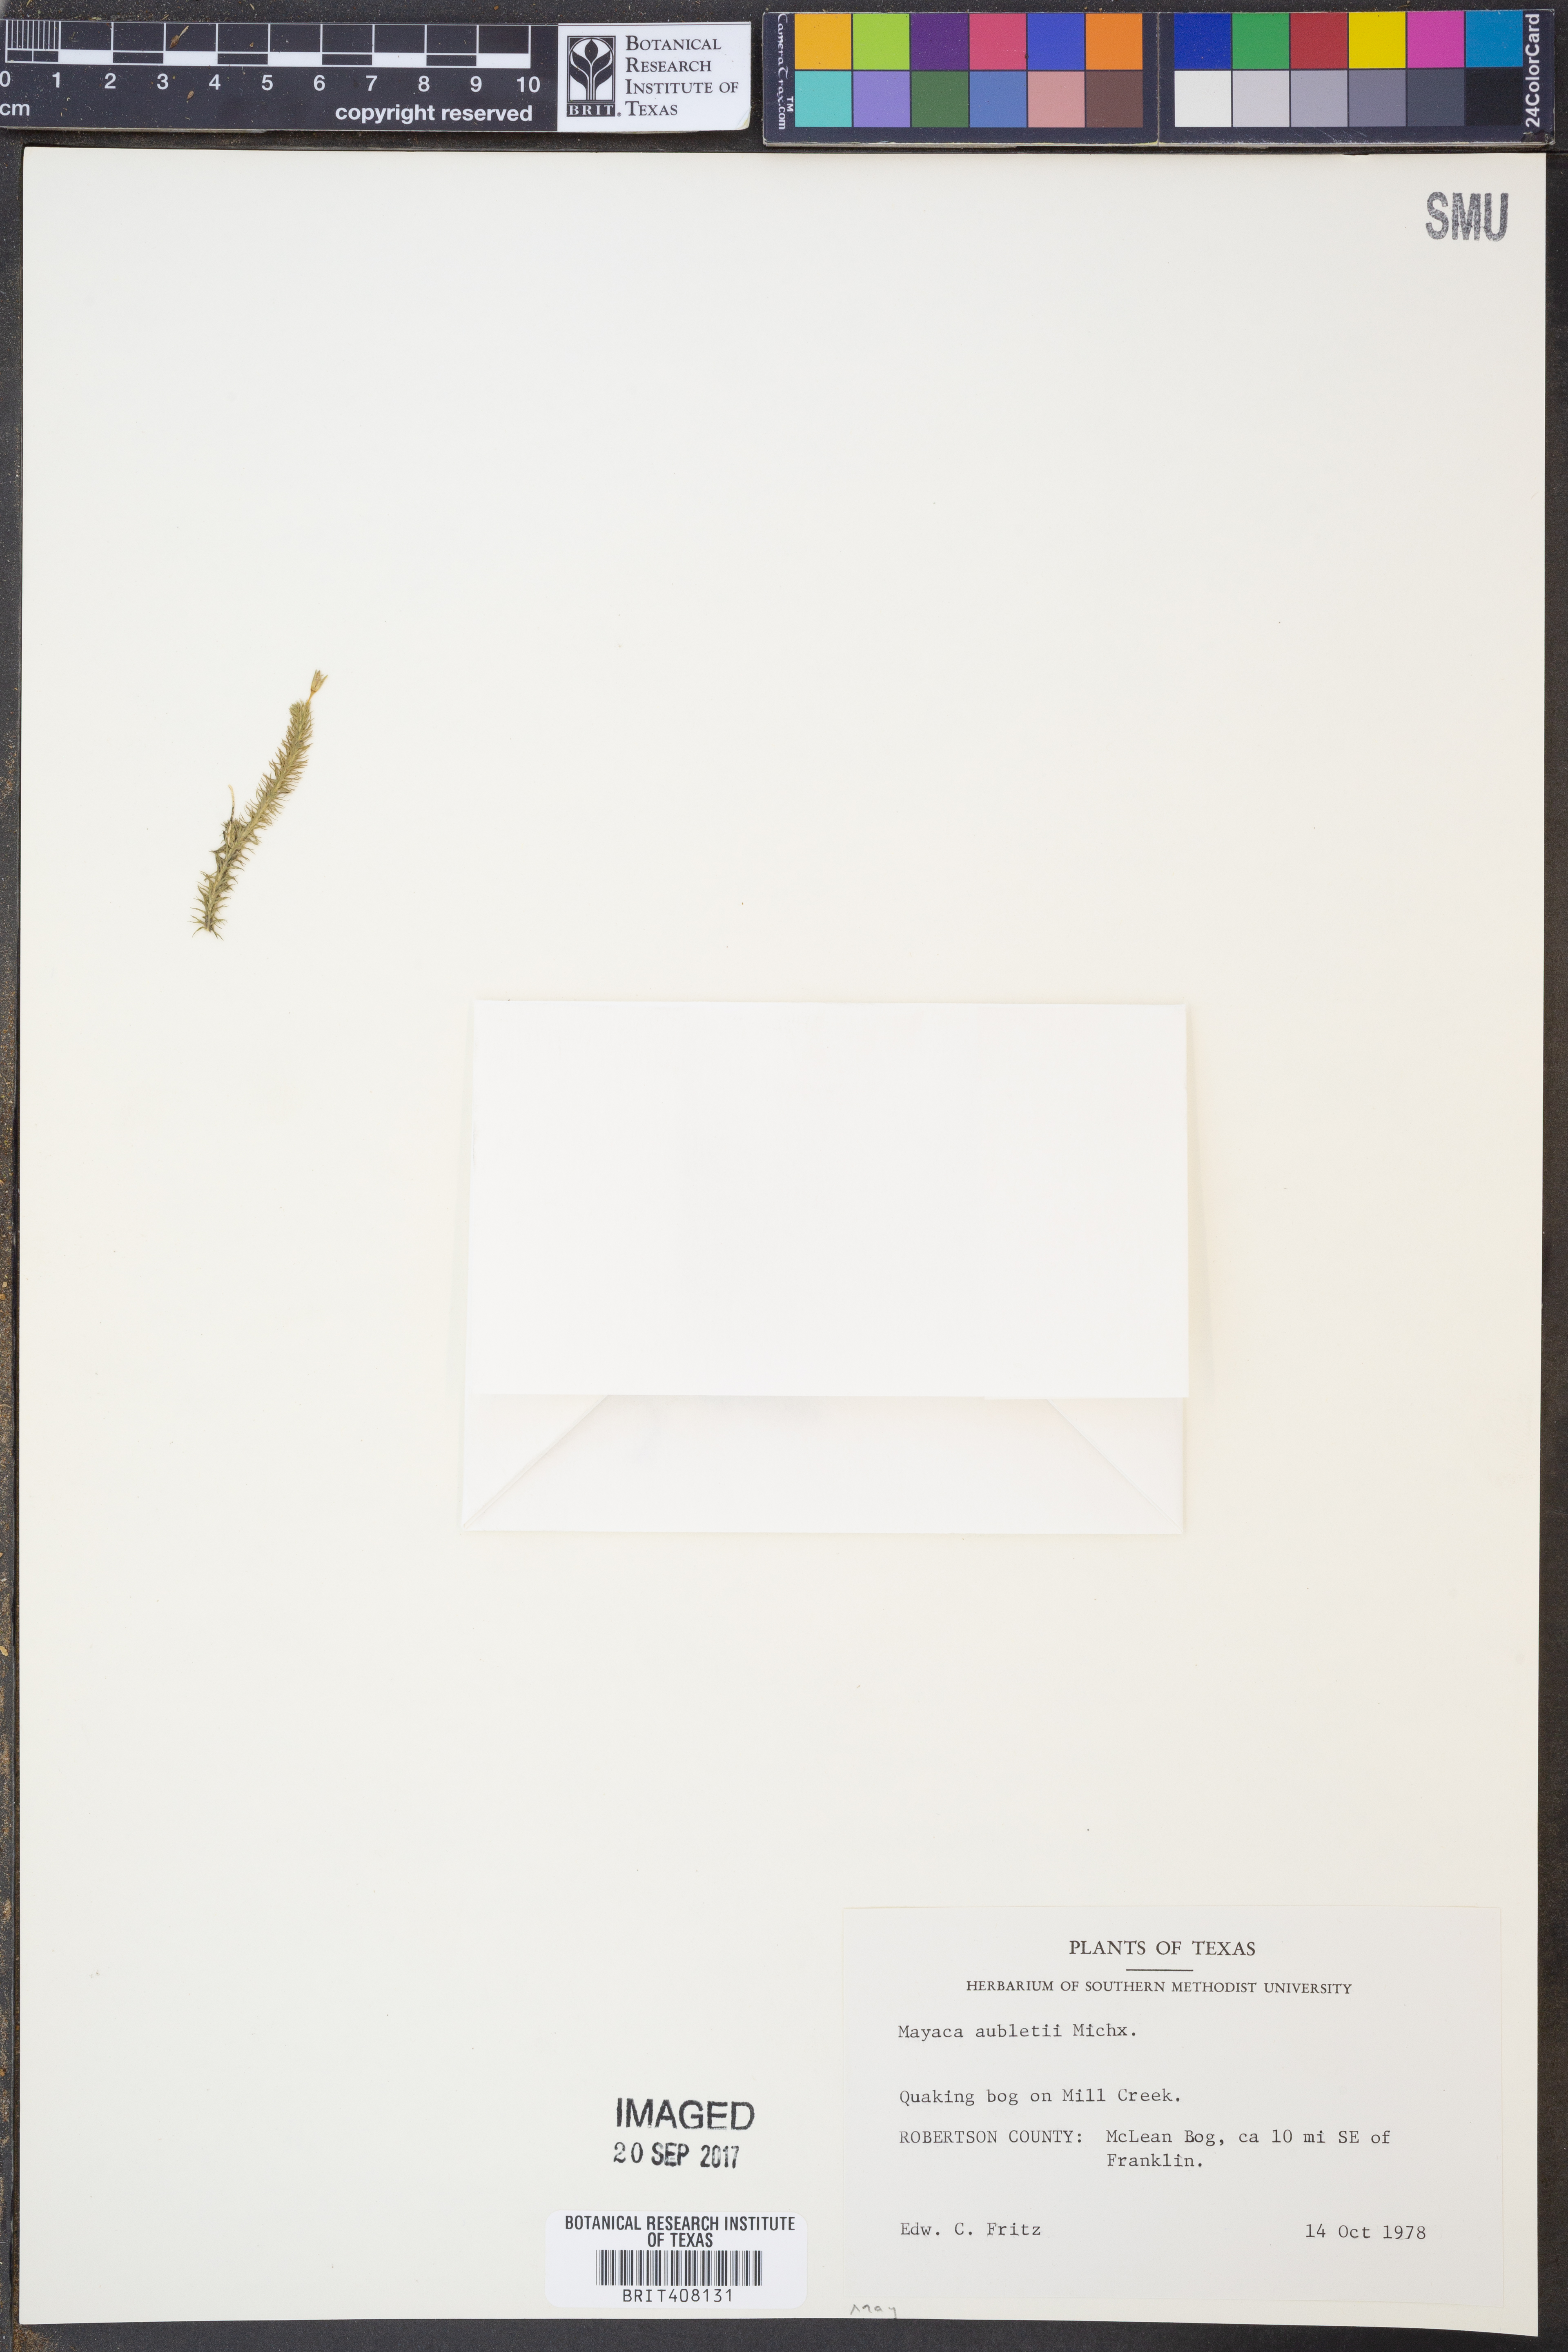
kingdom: Plantae
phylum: Tracheophyta
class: Liliopsida
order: Poales
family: Mayacaceae
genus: Mayaca
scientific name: Mayaca fluviatilis
